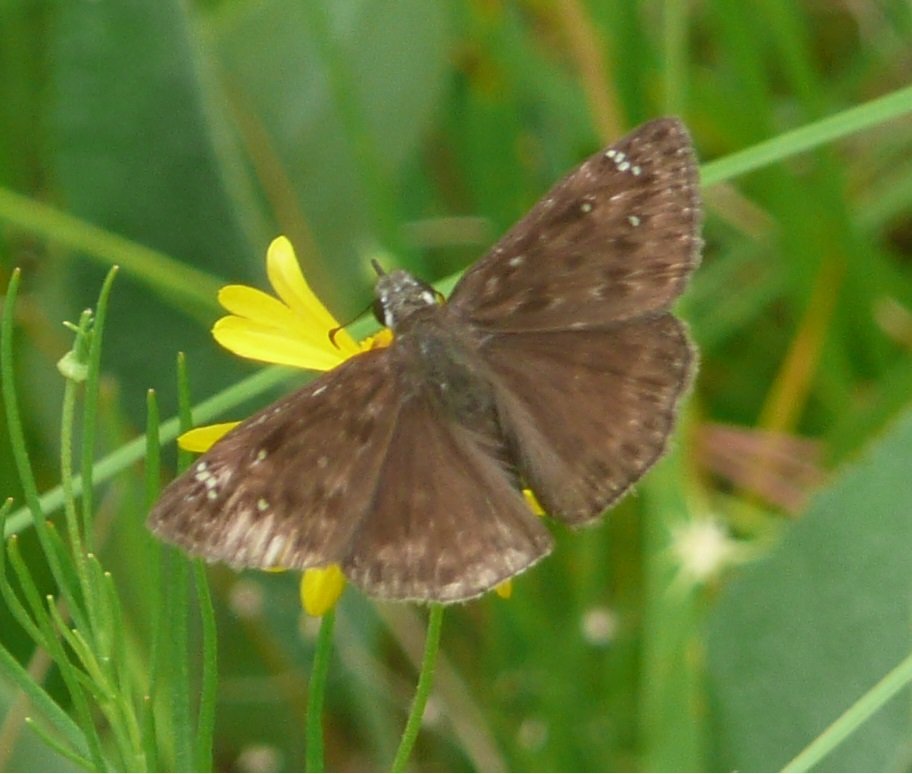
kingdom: Animalia
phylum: Arthropoda
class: Insecta
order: Lepidoptera
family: Hesperiidae
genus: Gesta
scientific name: Gesta
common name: Horace's Duskywing
